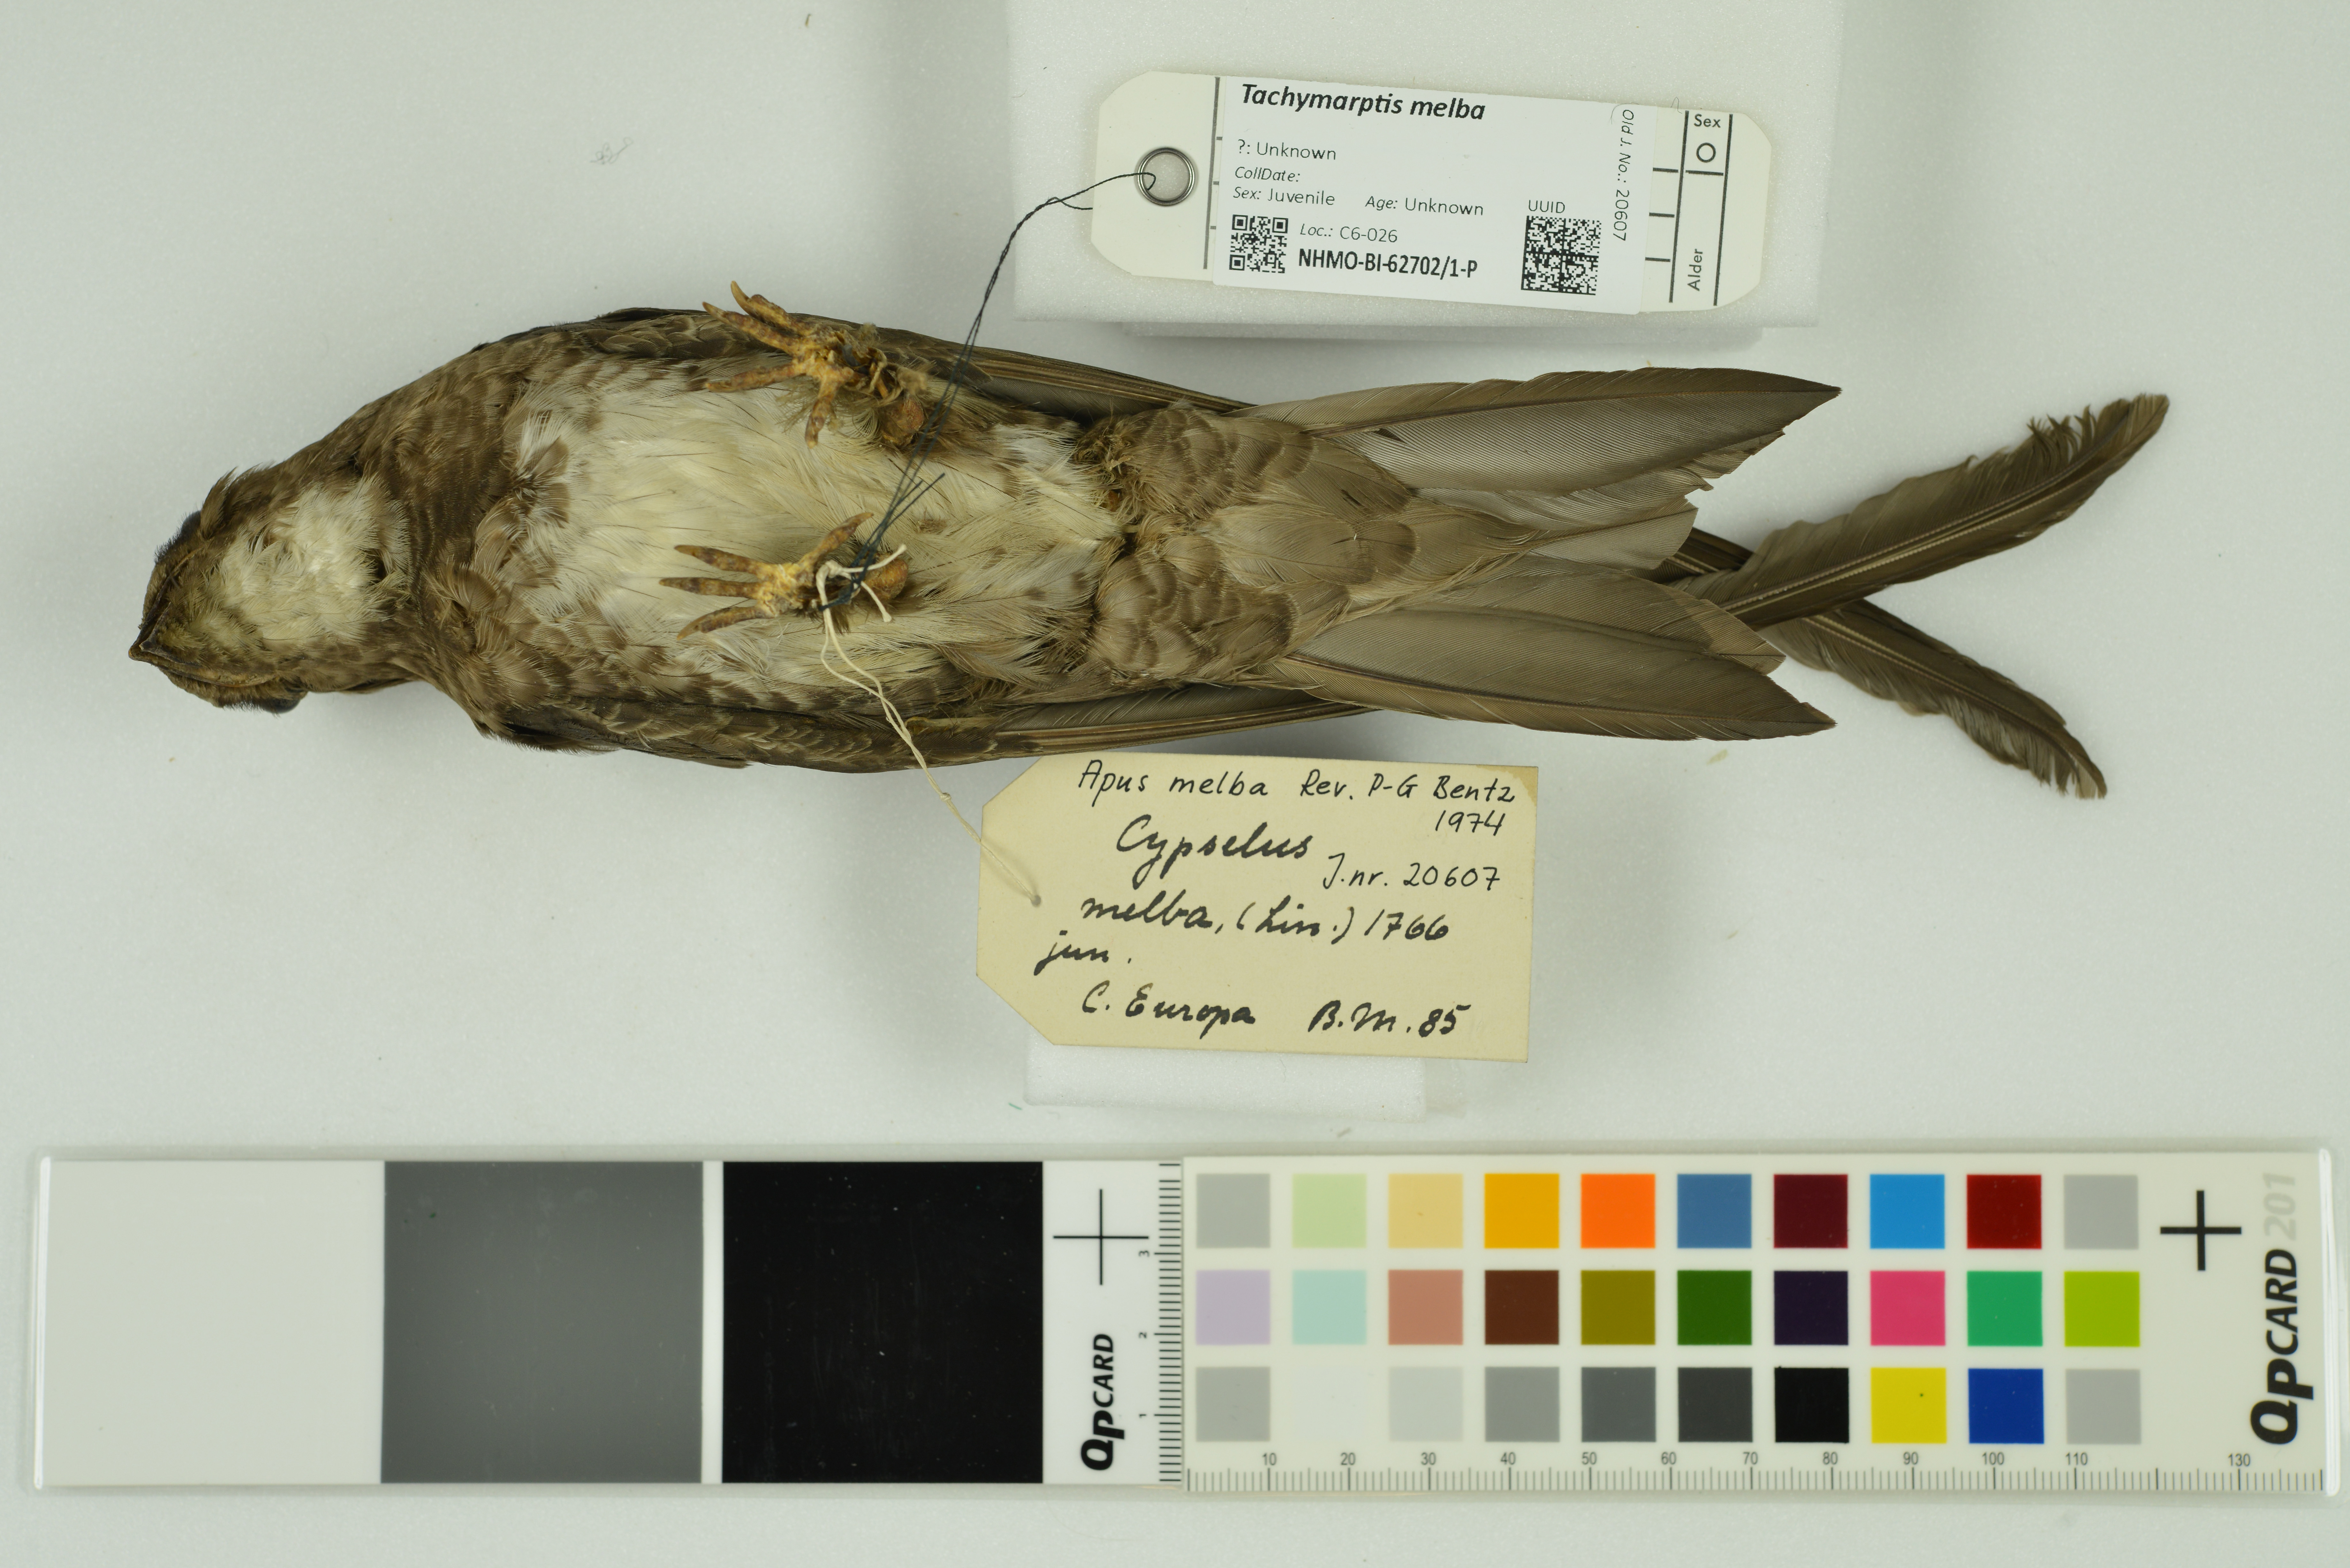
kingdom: Animalia
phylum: Chordata
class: Aves
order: Apodiformes
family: Apodidae
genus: Tachymarptis
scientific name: Tachymarptis melba
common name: Alpine swift
